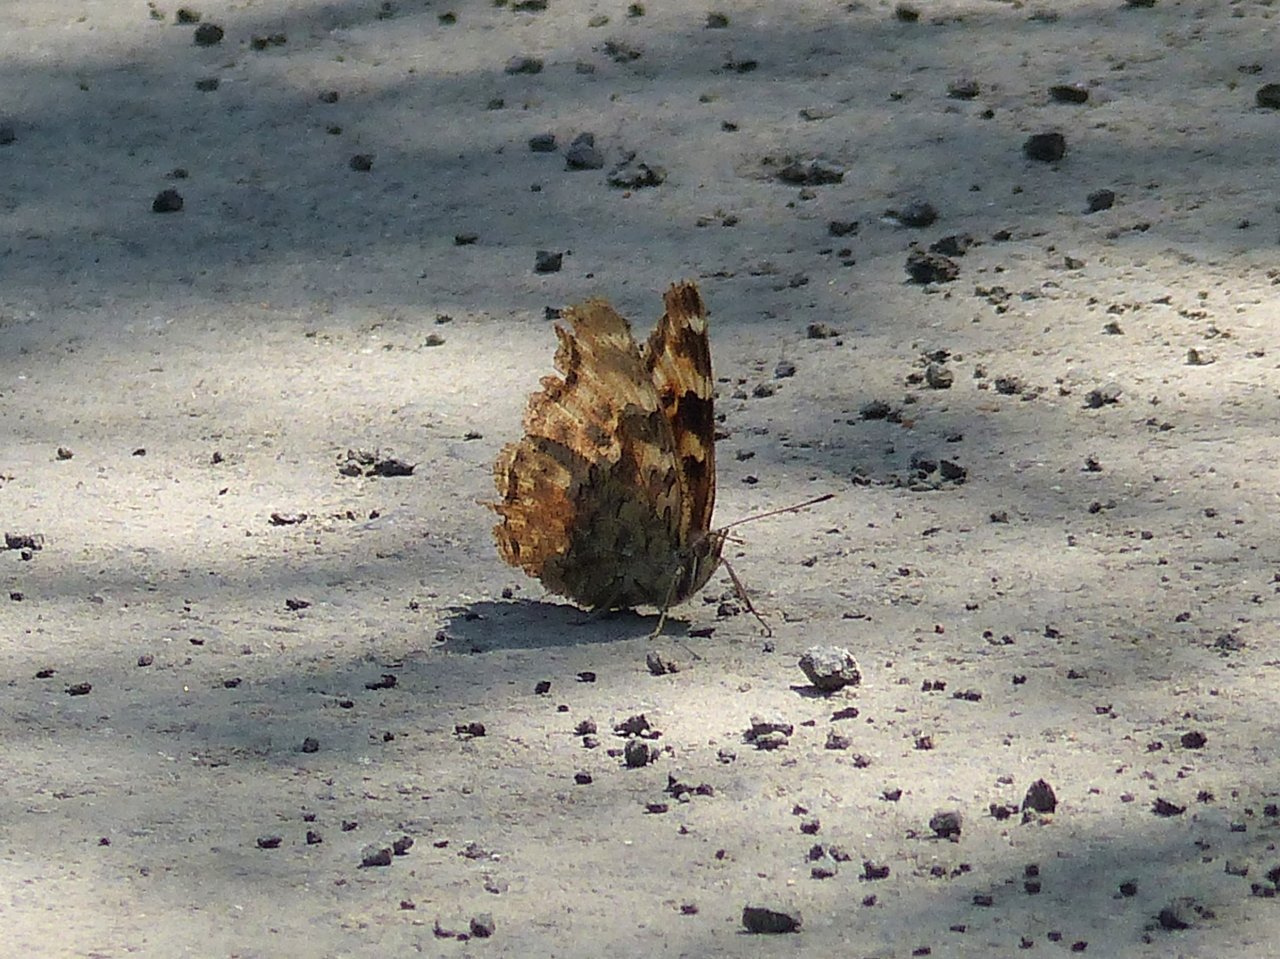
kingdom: Animalia
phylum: Arthropoda
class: Insecta
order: Lepidoptera
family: Nymphalidae
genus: Polygonia
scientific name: Polygonia vaualbum
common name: Compton Tortoiseshell
